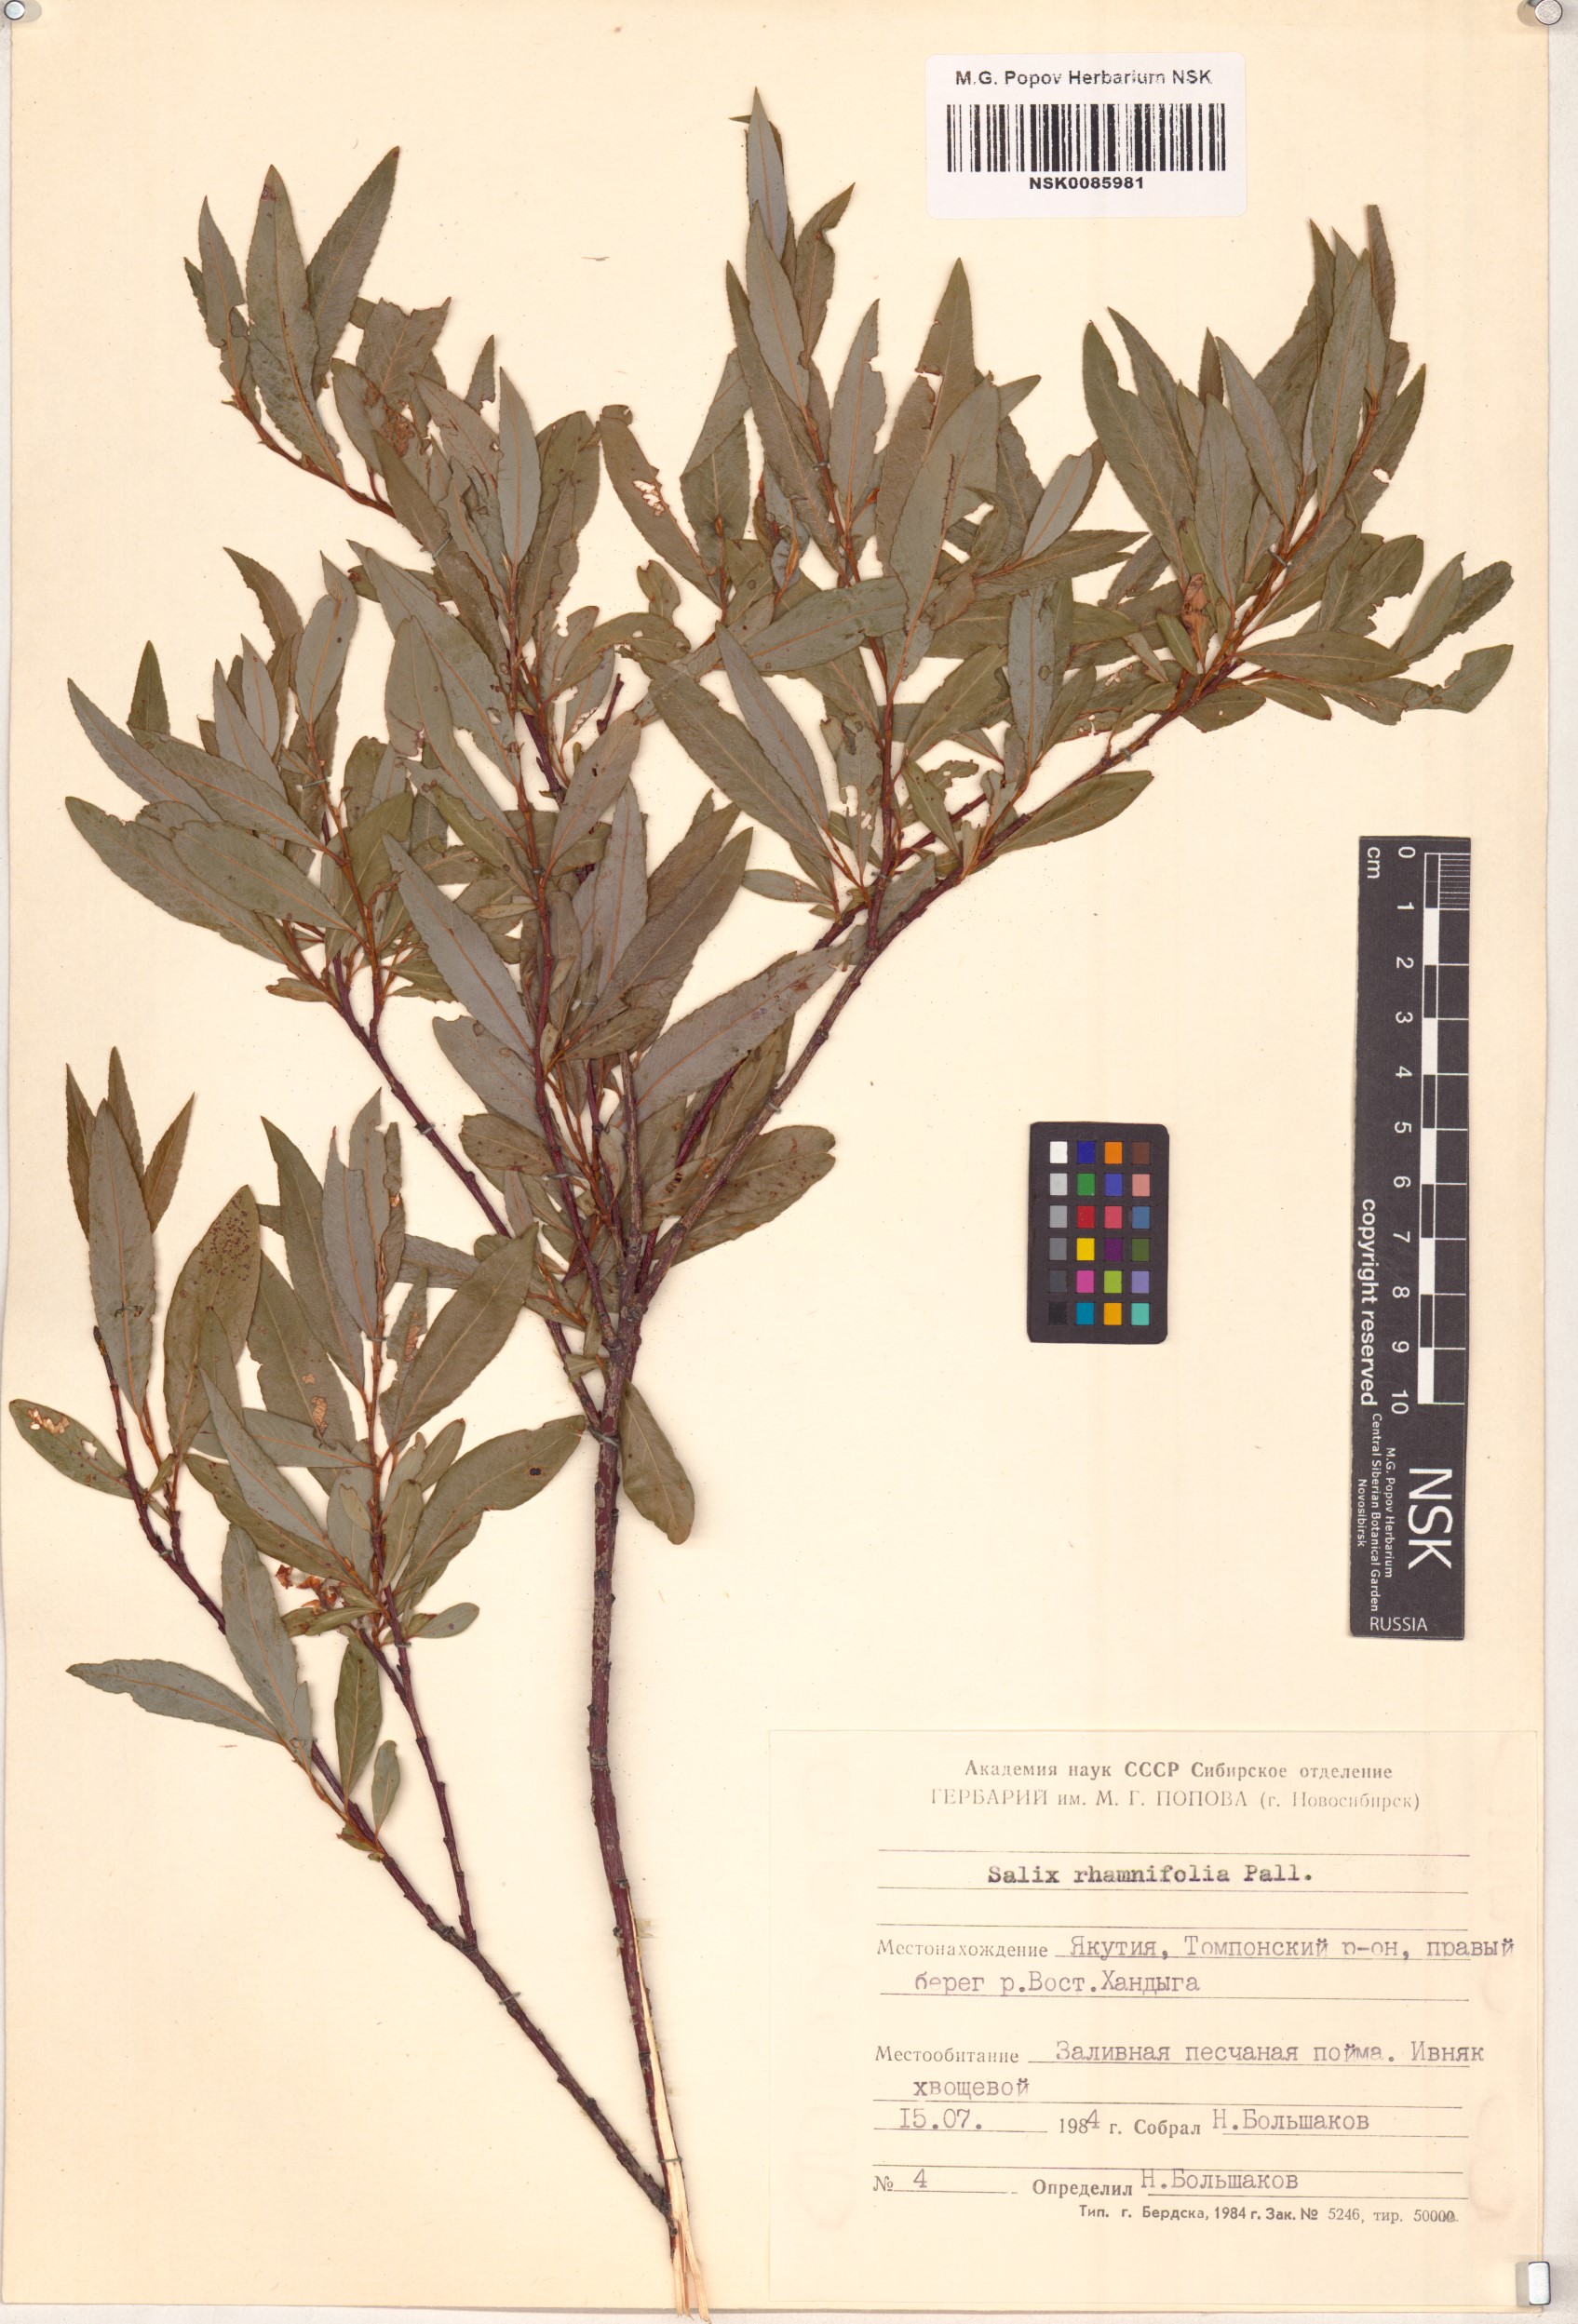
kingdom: Plantae
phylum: Tracheophyta
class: Magnoliopsida
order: Malpighiales
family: Salicaceae
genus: Salix
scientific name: Salix rhamnifolia
